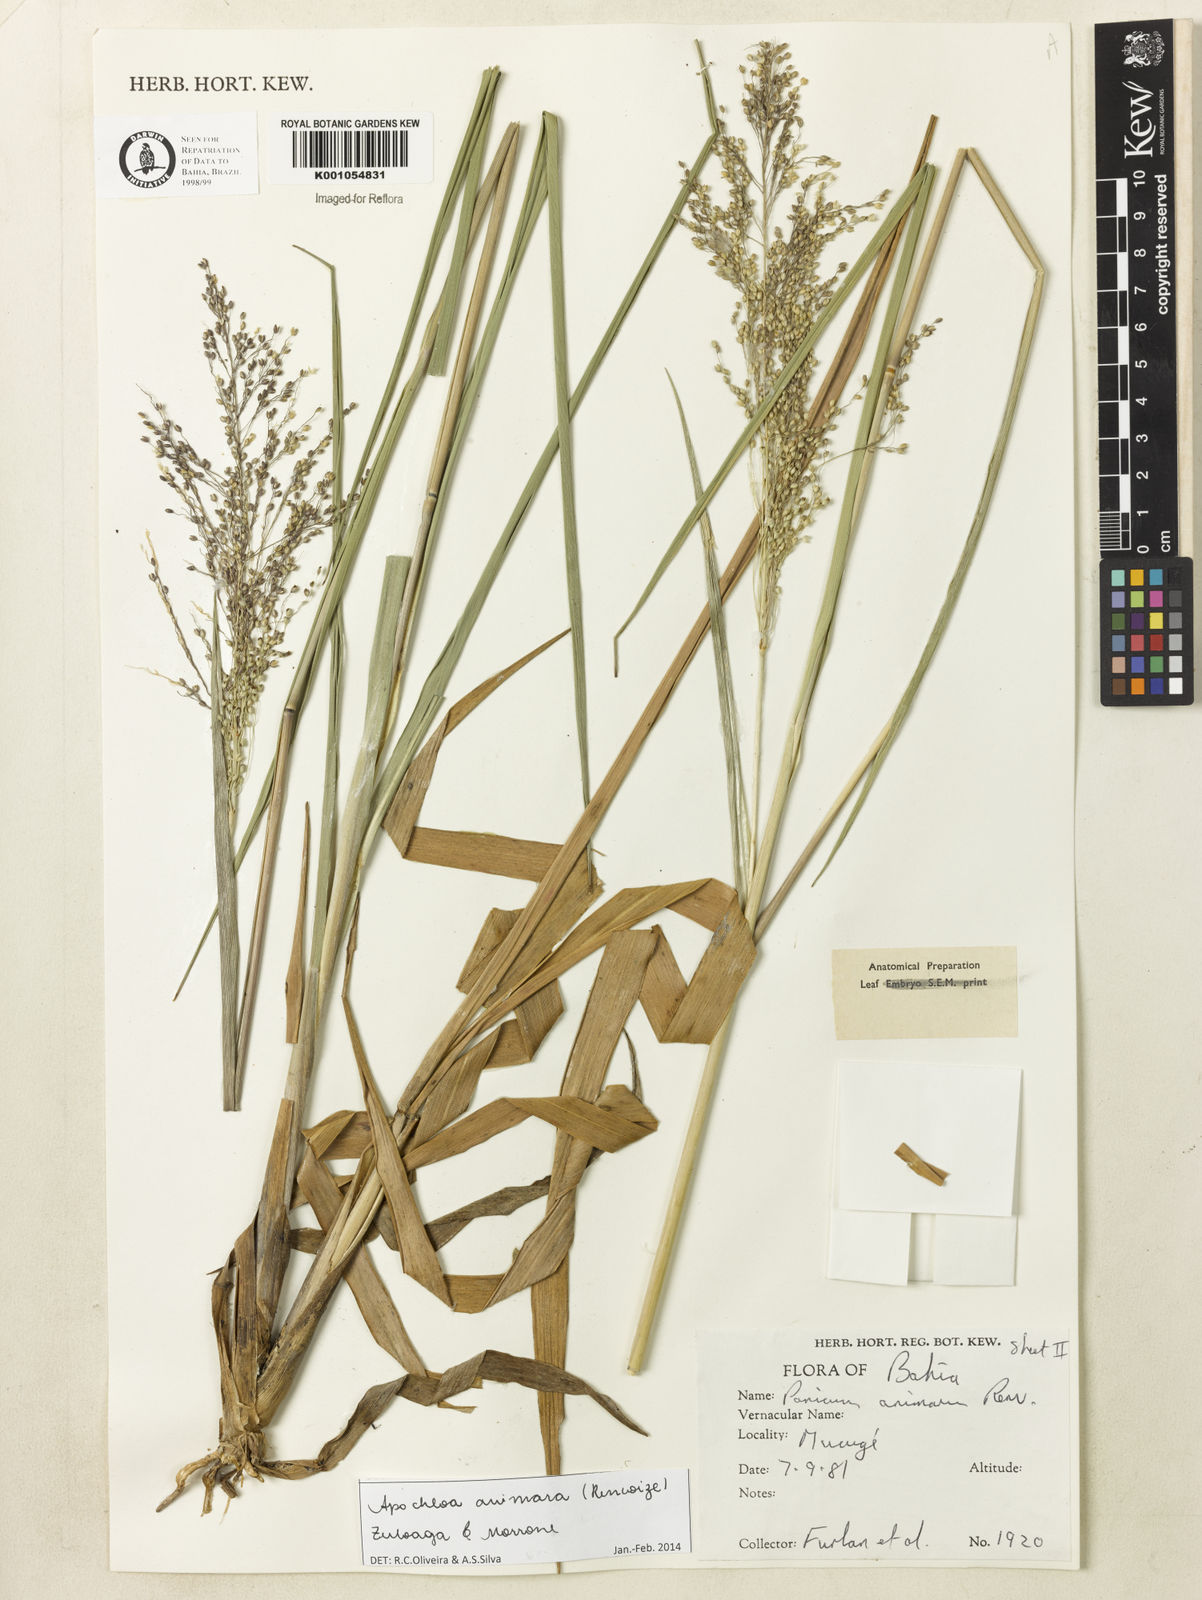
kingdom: Plantae
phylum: Tracheophyta
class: Liliopsida
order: Poales
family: Poaceae
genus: Apochloa
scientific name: Apochloa animara
